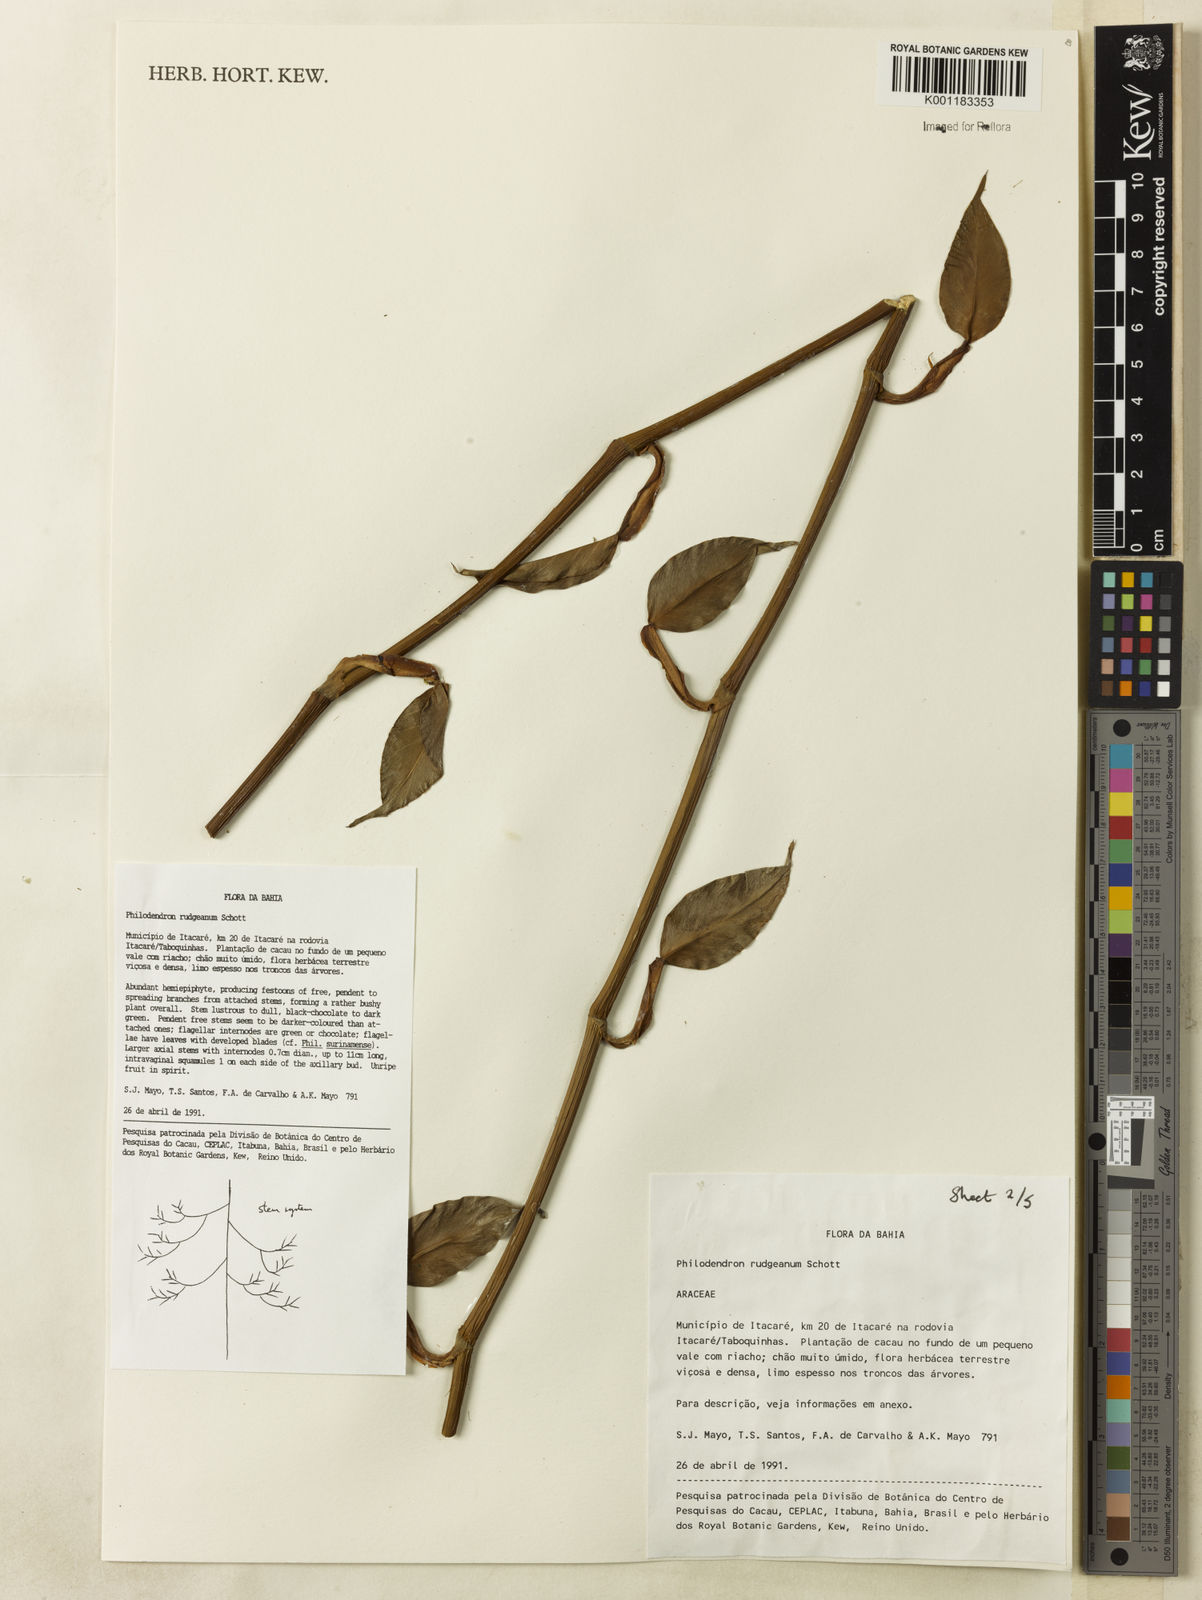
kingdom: Plantae
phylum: Tracheophyta
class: Liliopsida
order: Alismatales
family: Araceae
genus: Philodendron
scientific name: Philodendron rudgeanum
